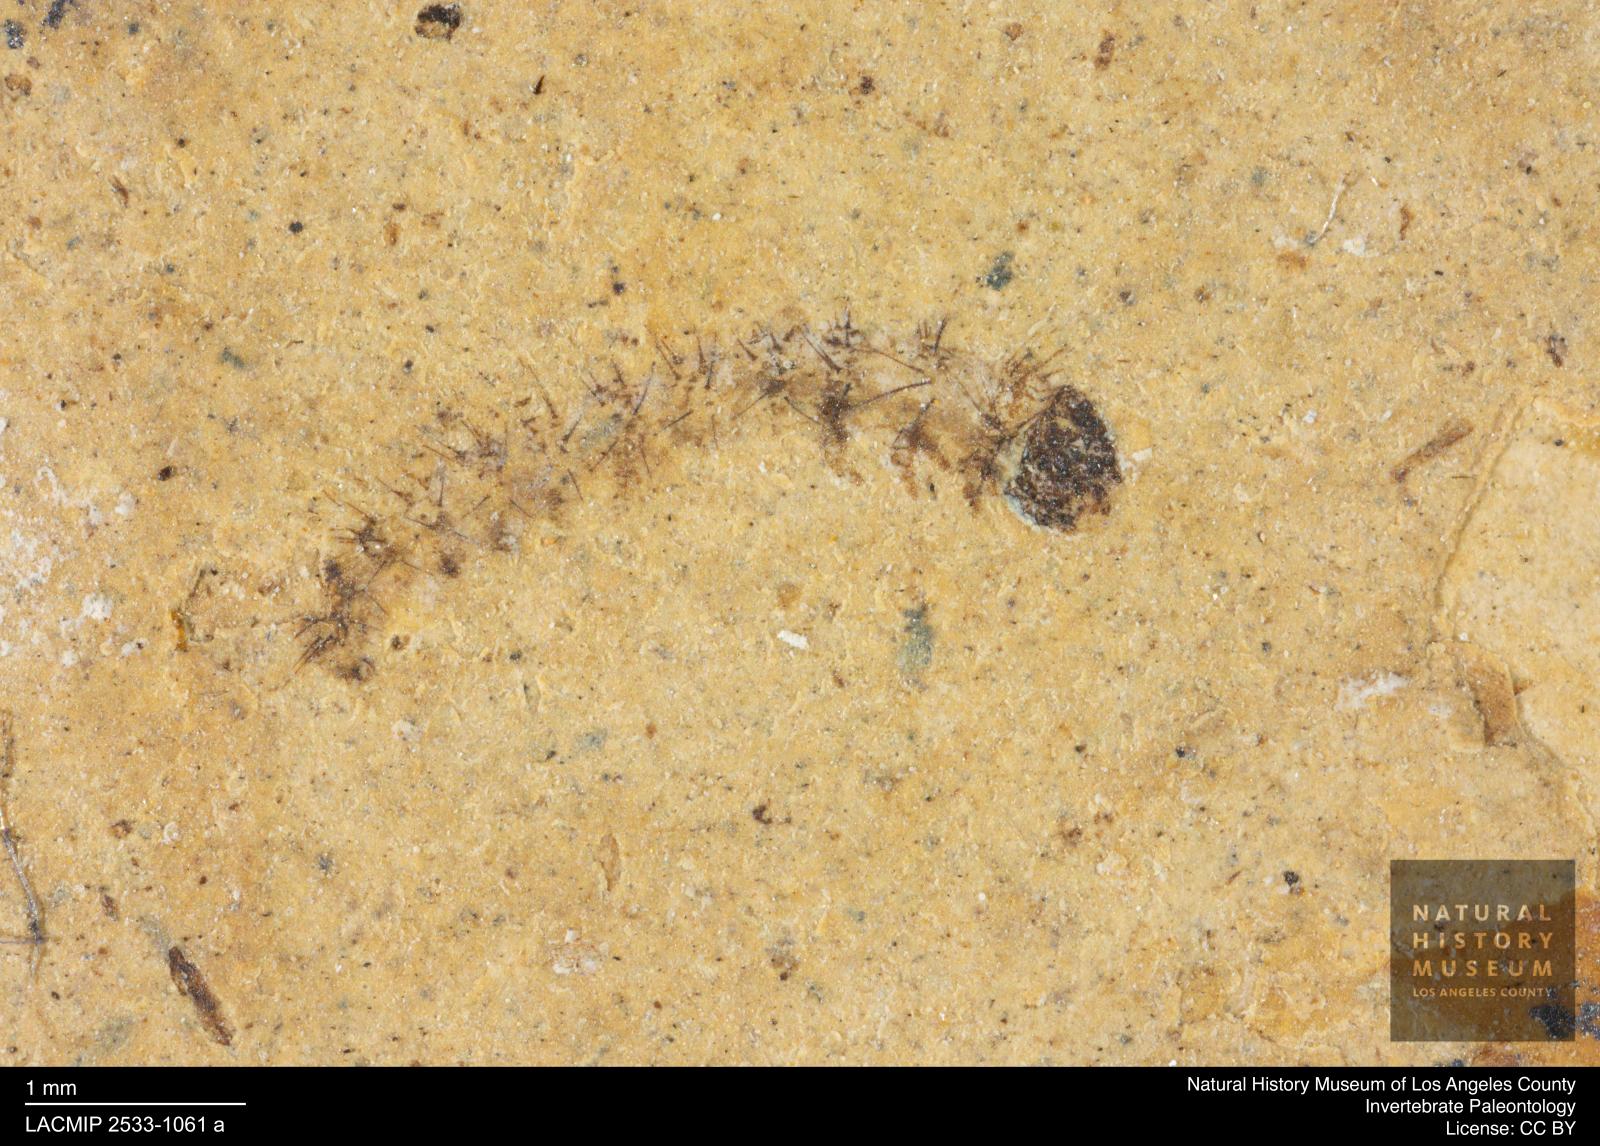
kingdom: Animalia
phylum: Arthropoda
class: Insecta
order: Lepidoptera
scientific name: Lepidoptera
